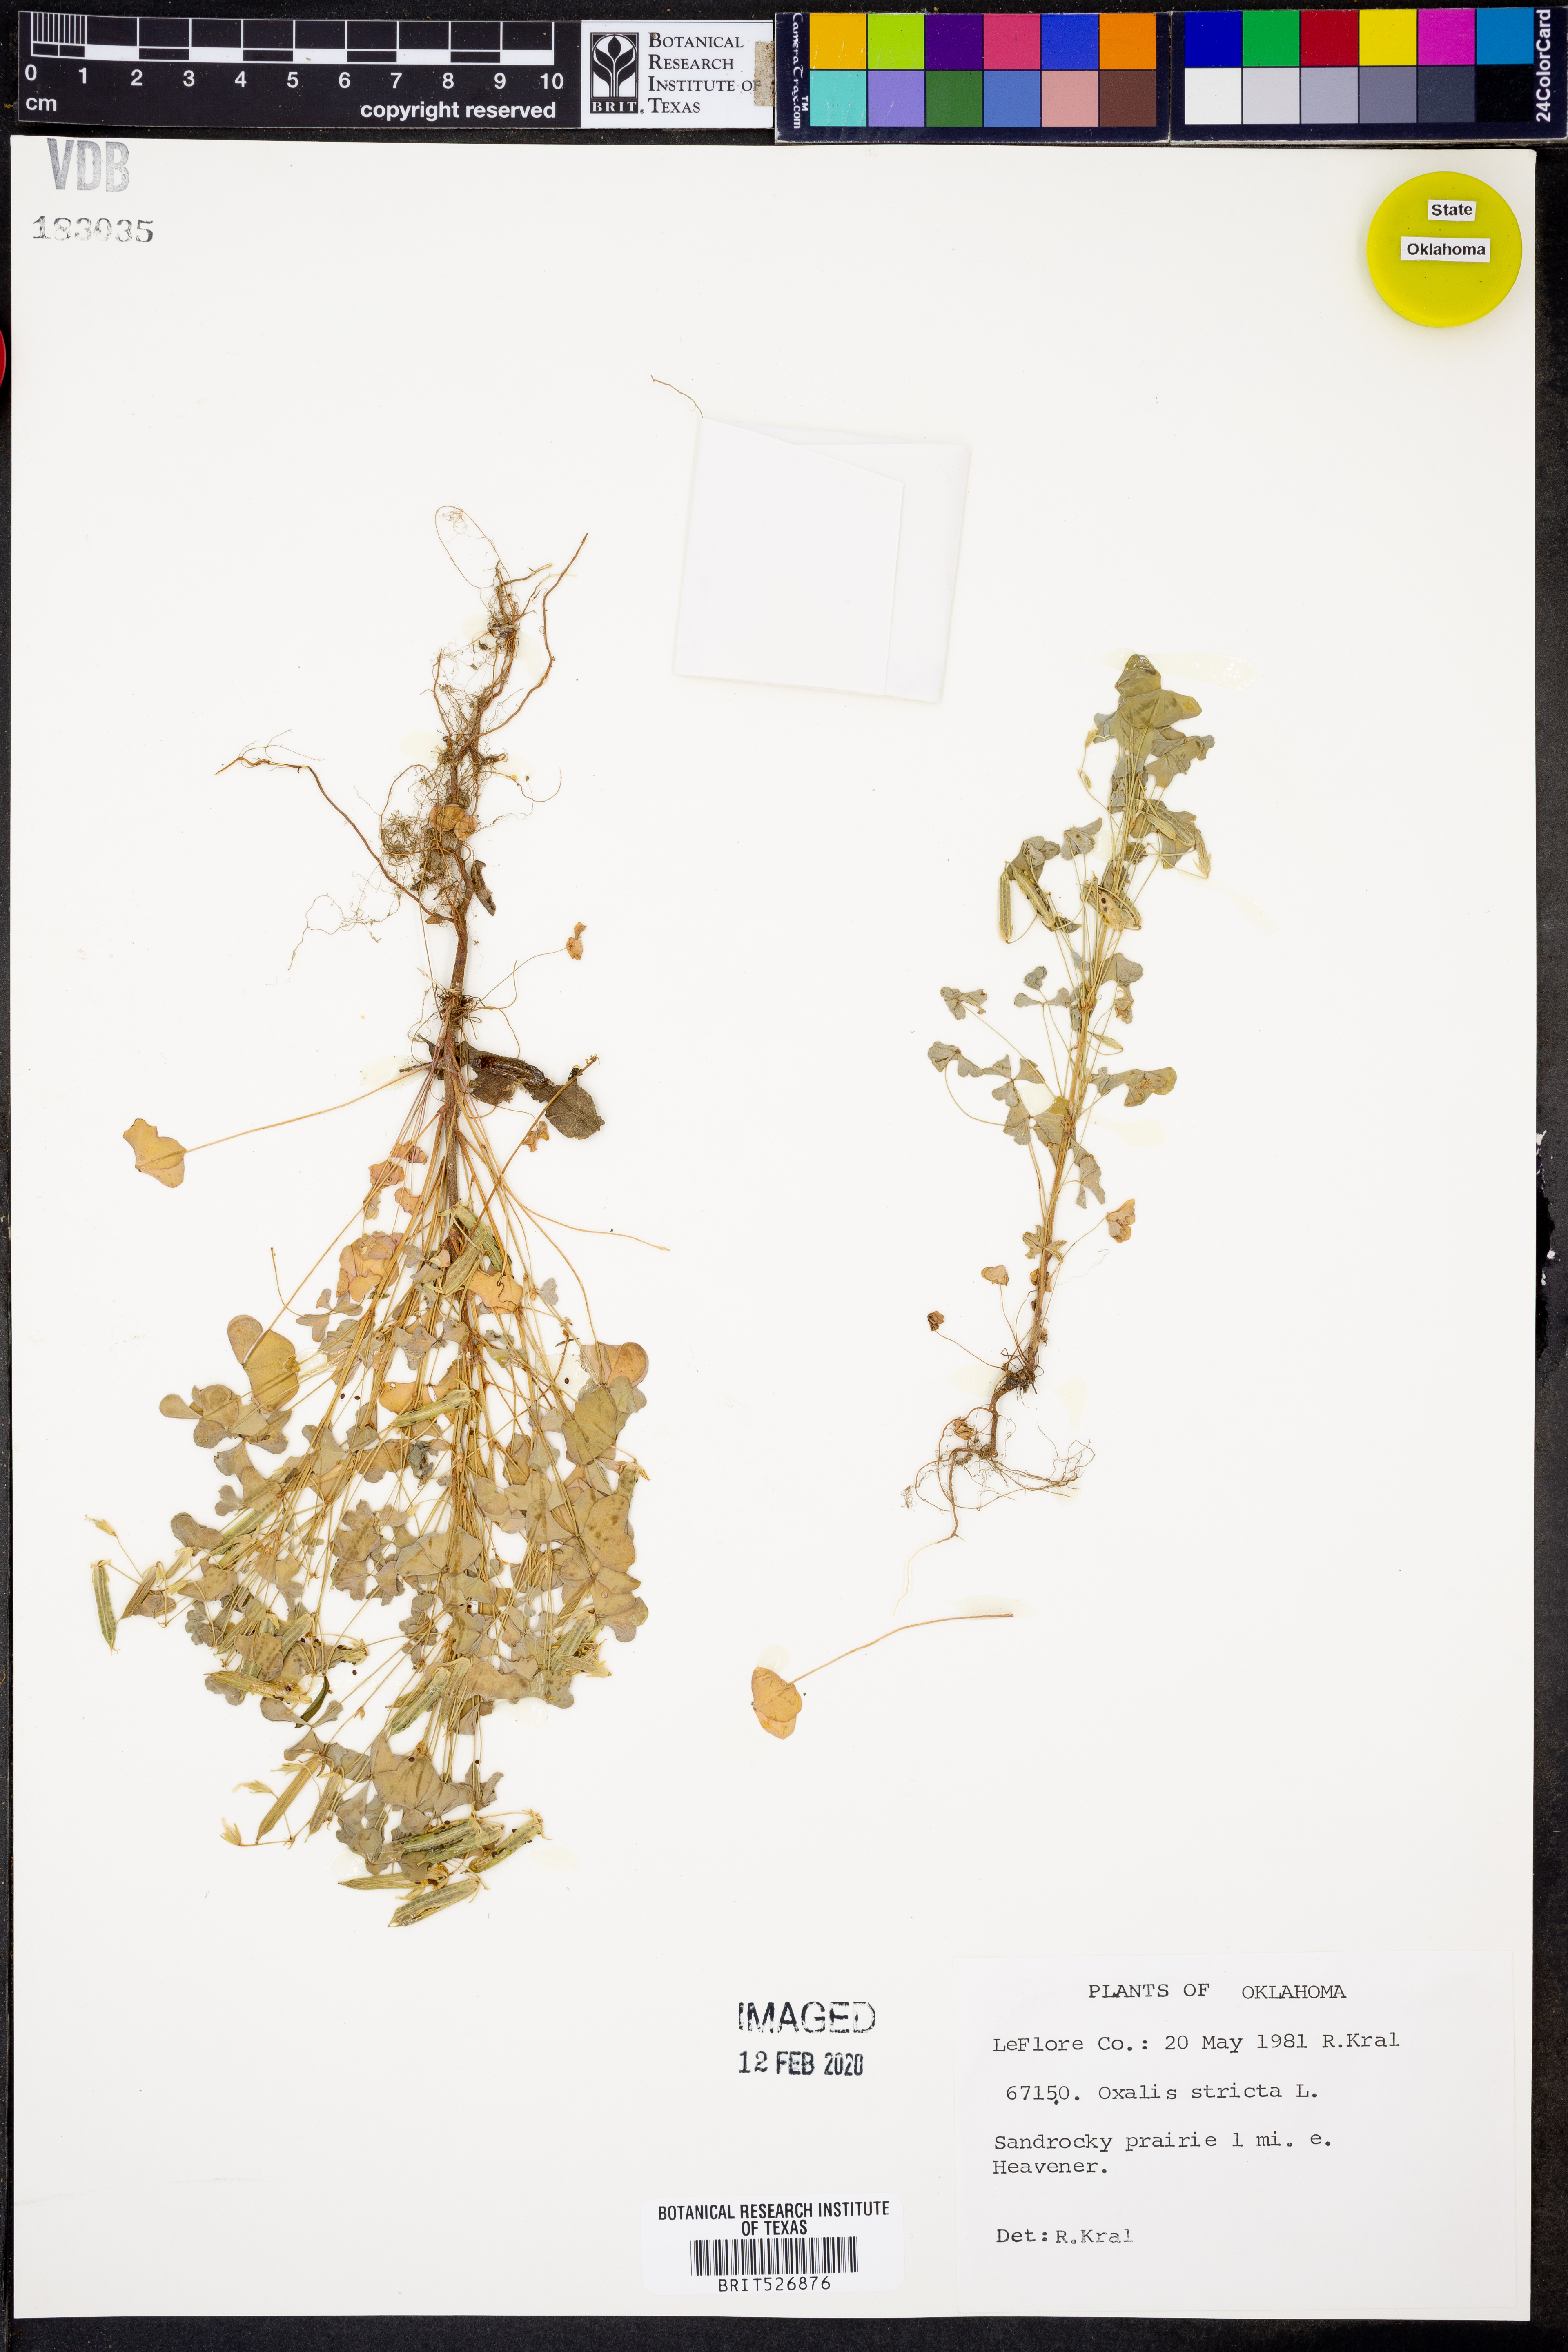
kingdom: Plantae
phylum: Tracheophyta
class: Magnoliopsida
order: Oxalidales
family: Oxalidaceae
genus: Oxalis
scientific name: Oxalis stricta
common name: Upright yellow-sorrel
